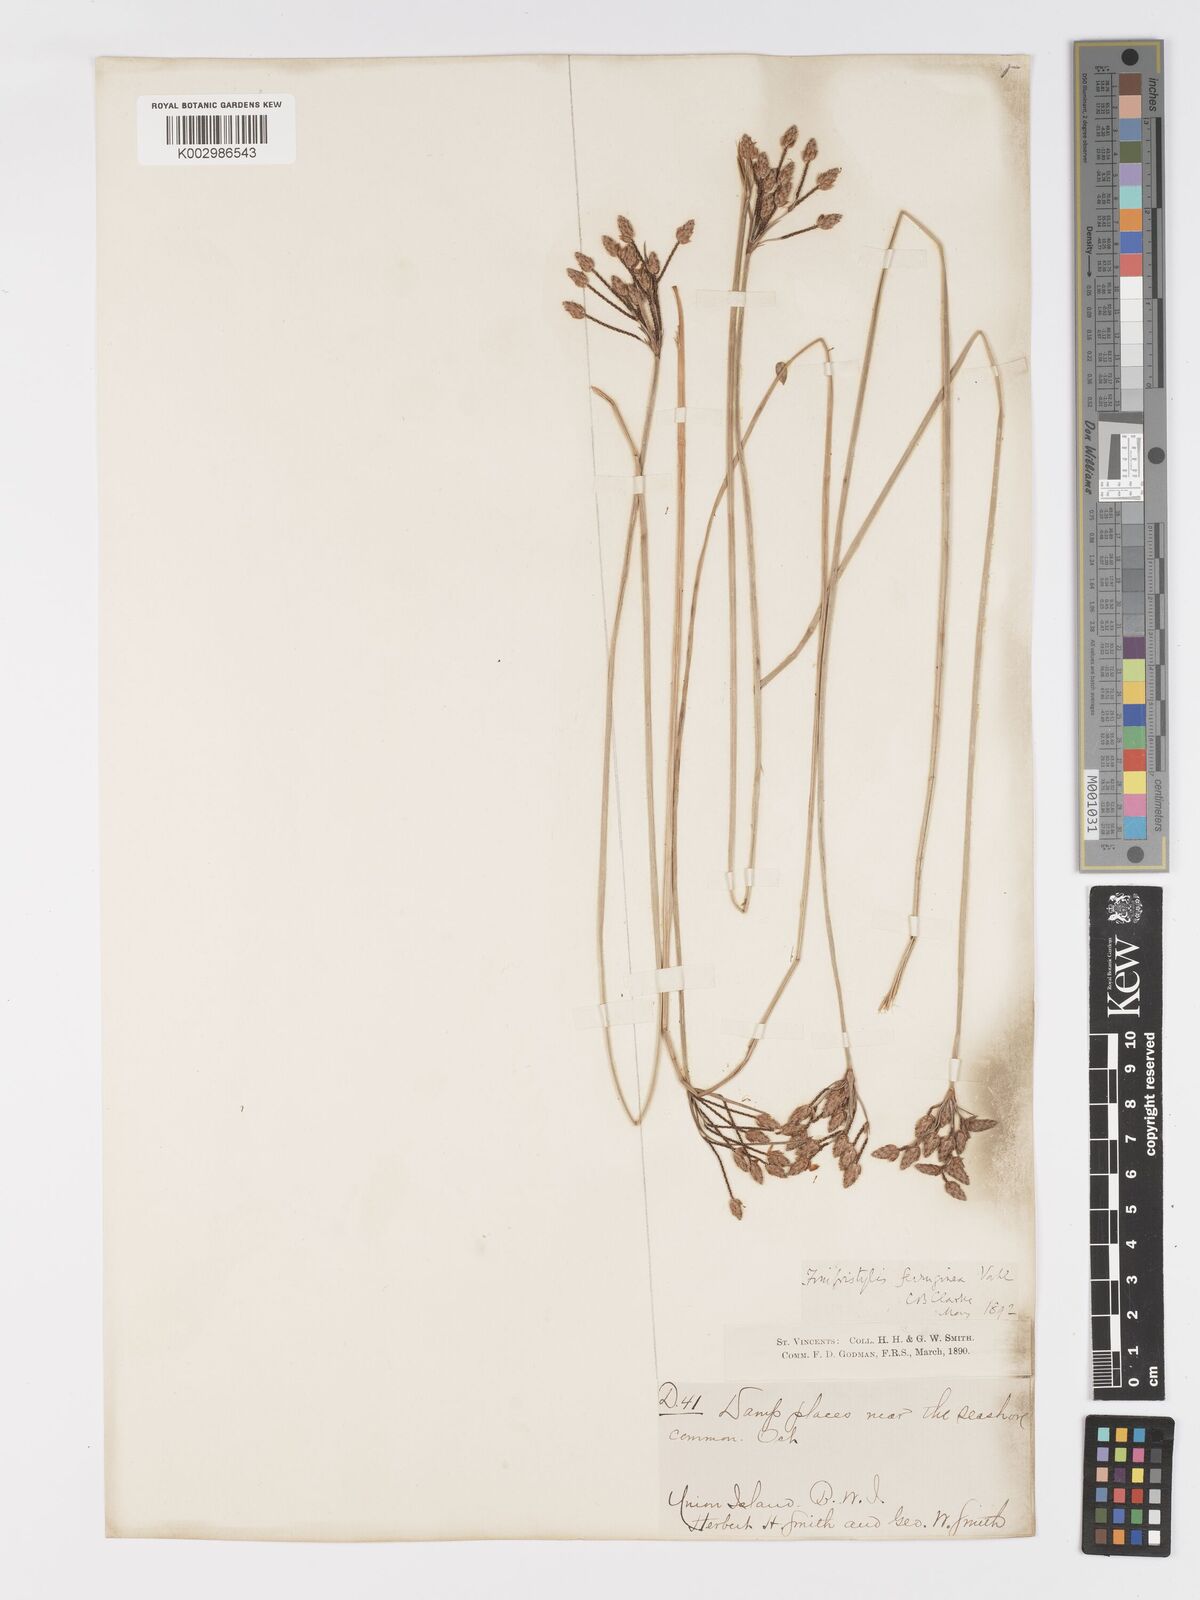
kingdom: Plantae
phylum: Tracheophyta
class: Liliopsida
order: Poales
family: Cyperaceae
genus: Fimbristylis
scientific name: Fimbristylis ferruginea
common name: West indian fimbry
